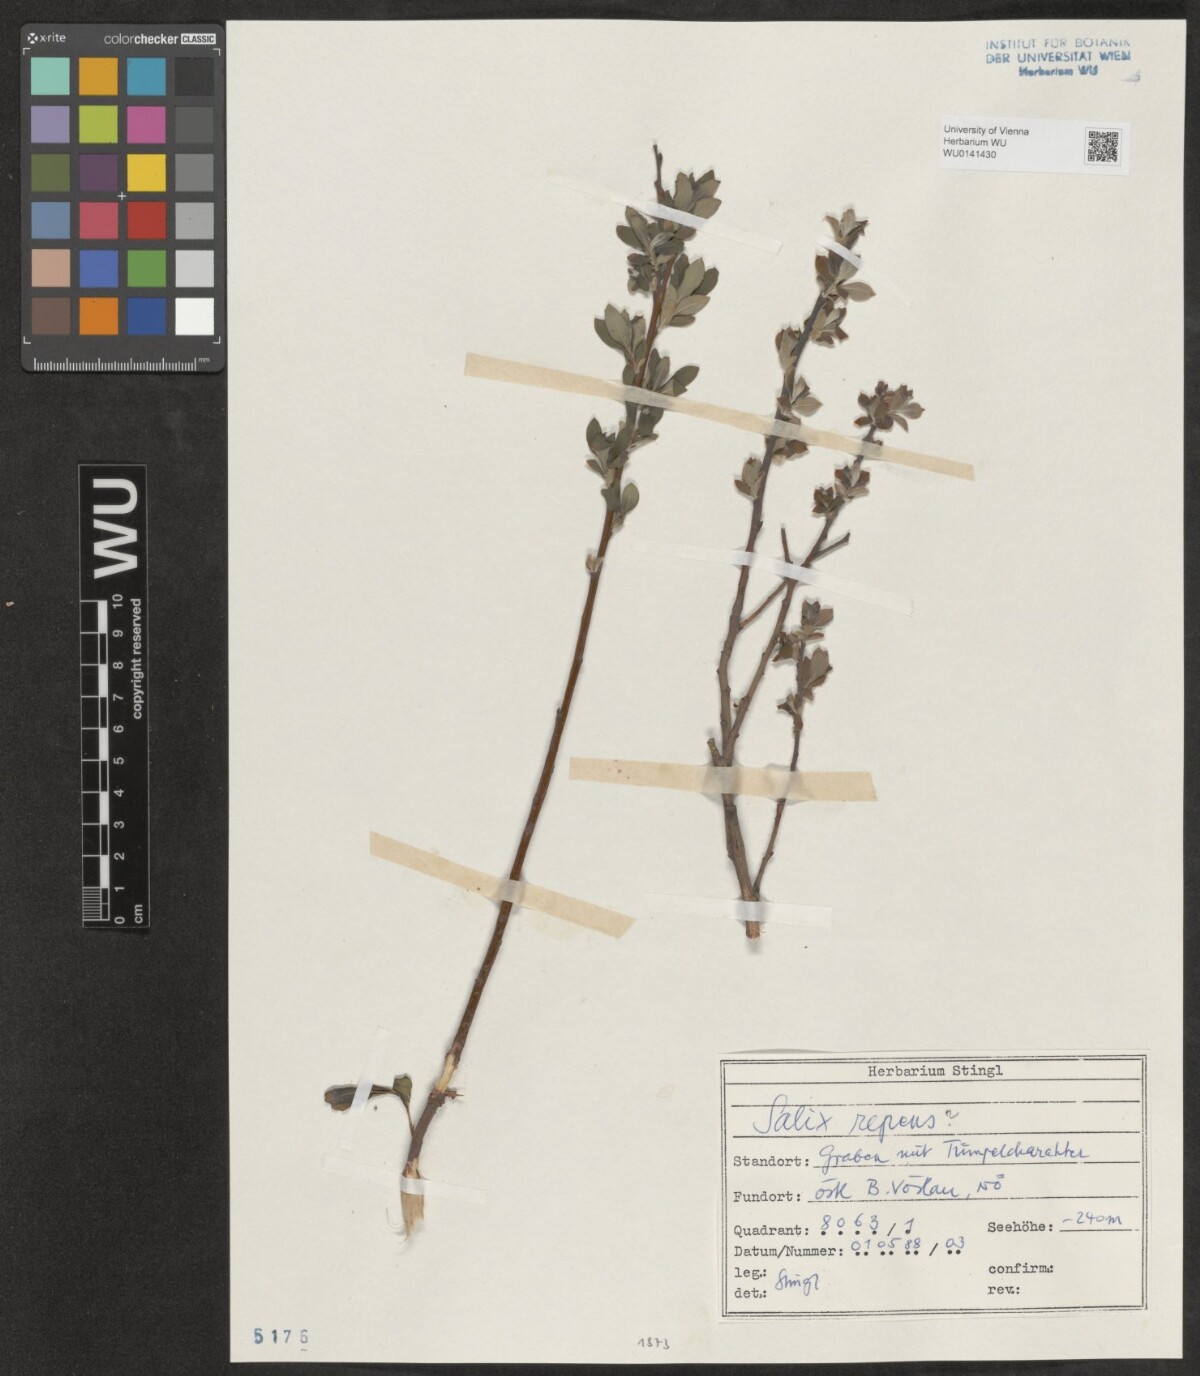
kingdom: Plantae
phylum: Tracheophyta
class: Magnoliopsida
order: Malpighiales
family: Salicaceae
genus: Salix
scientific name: Salix repens
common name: Creeping willow
